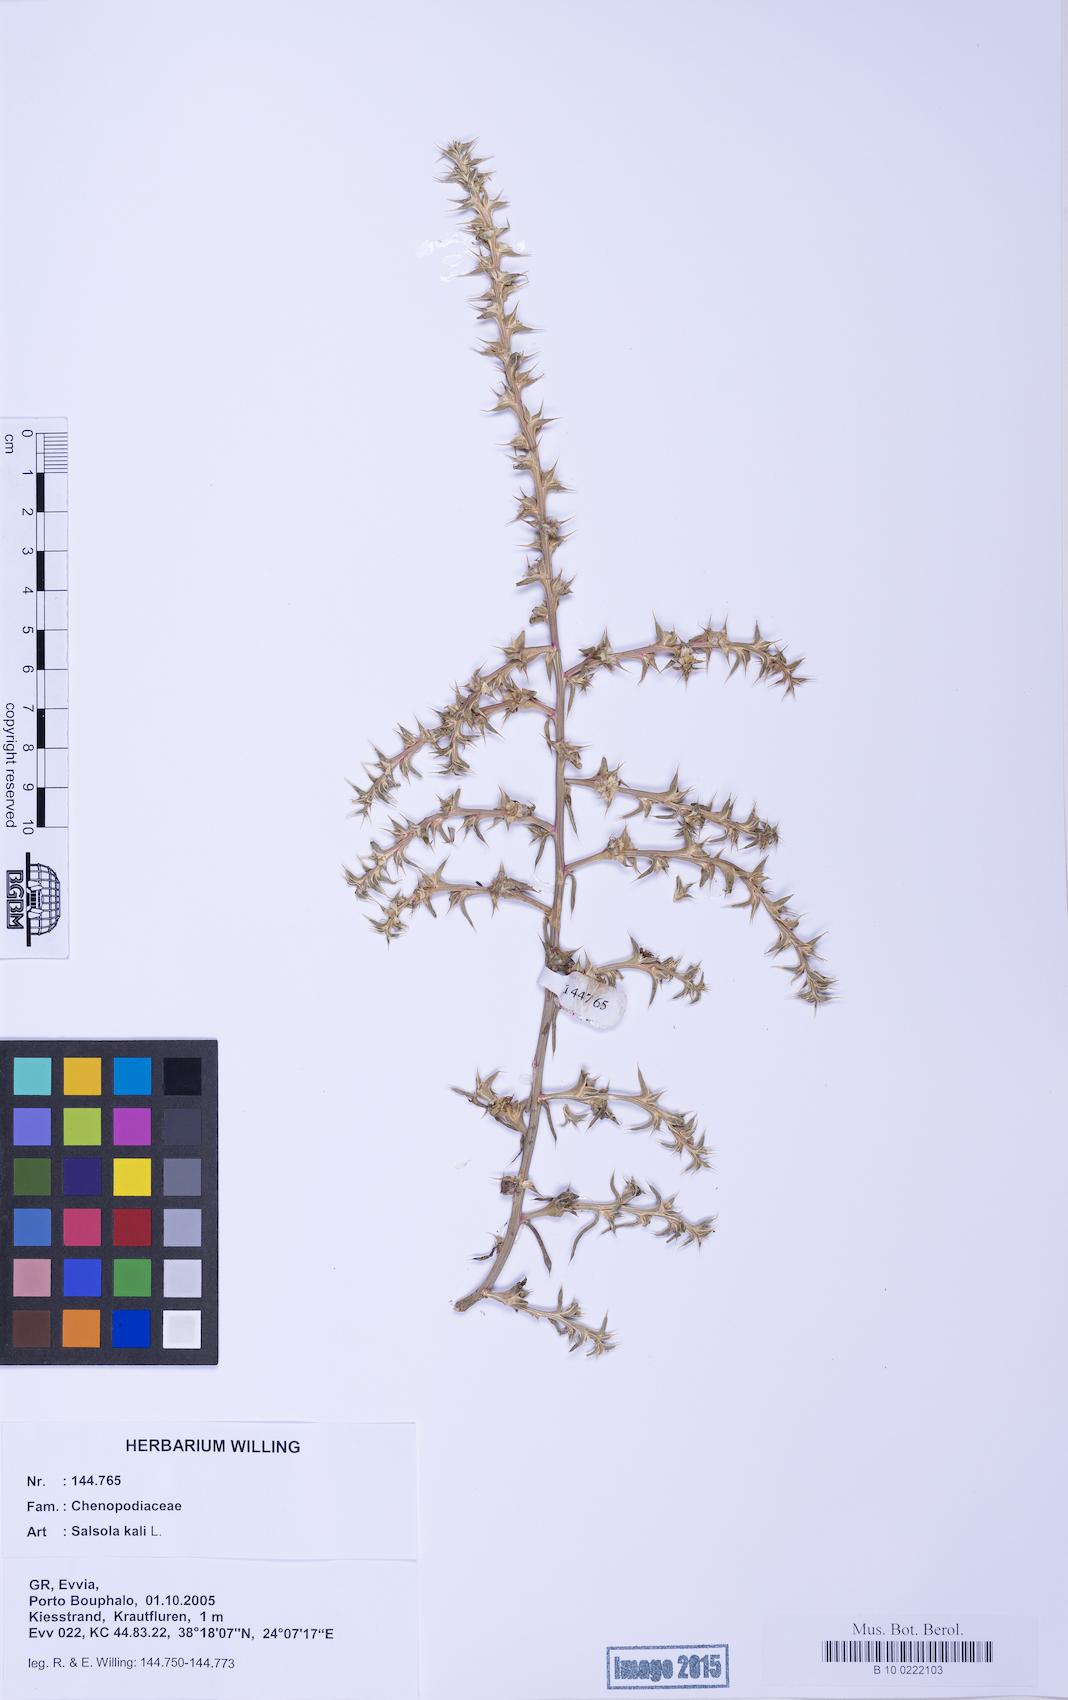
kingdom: Plantae
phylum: Tracheophyta
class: Magnoliopsida
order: Caryophyllales
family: Amaranthaceae
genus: Salsola
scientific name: Salsola kali
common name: Saltwort
